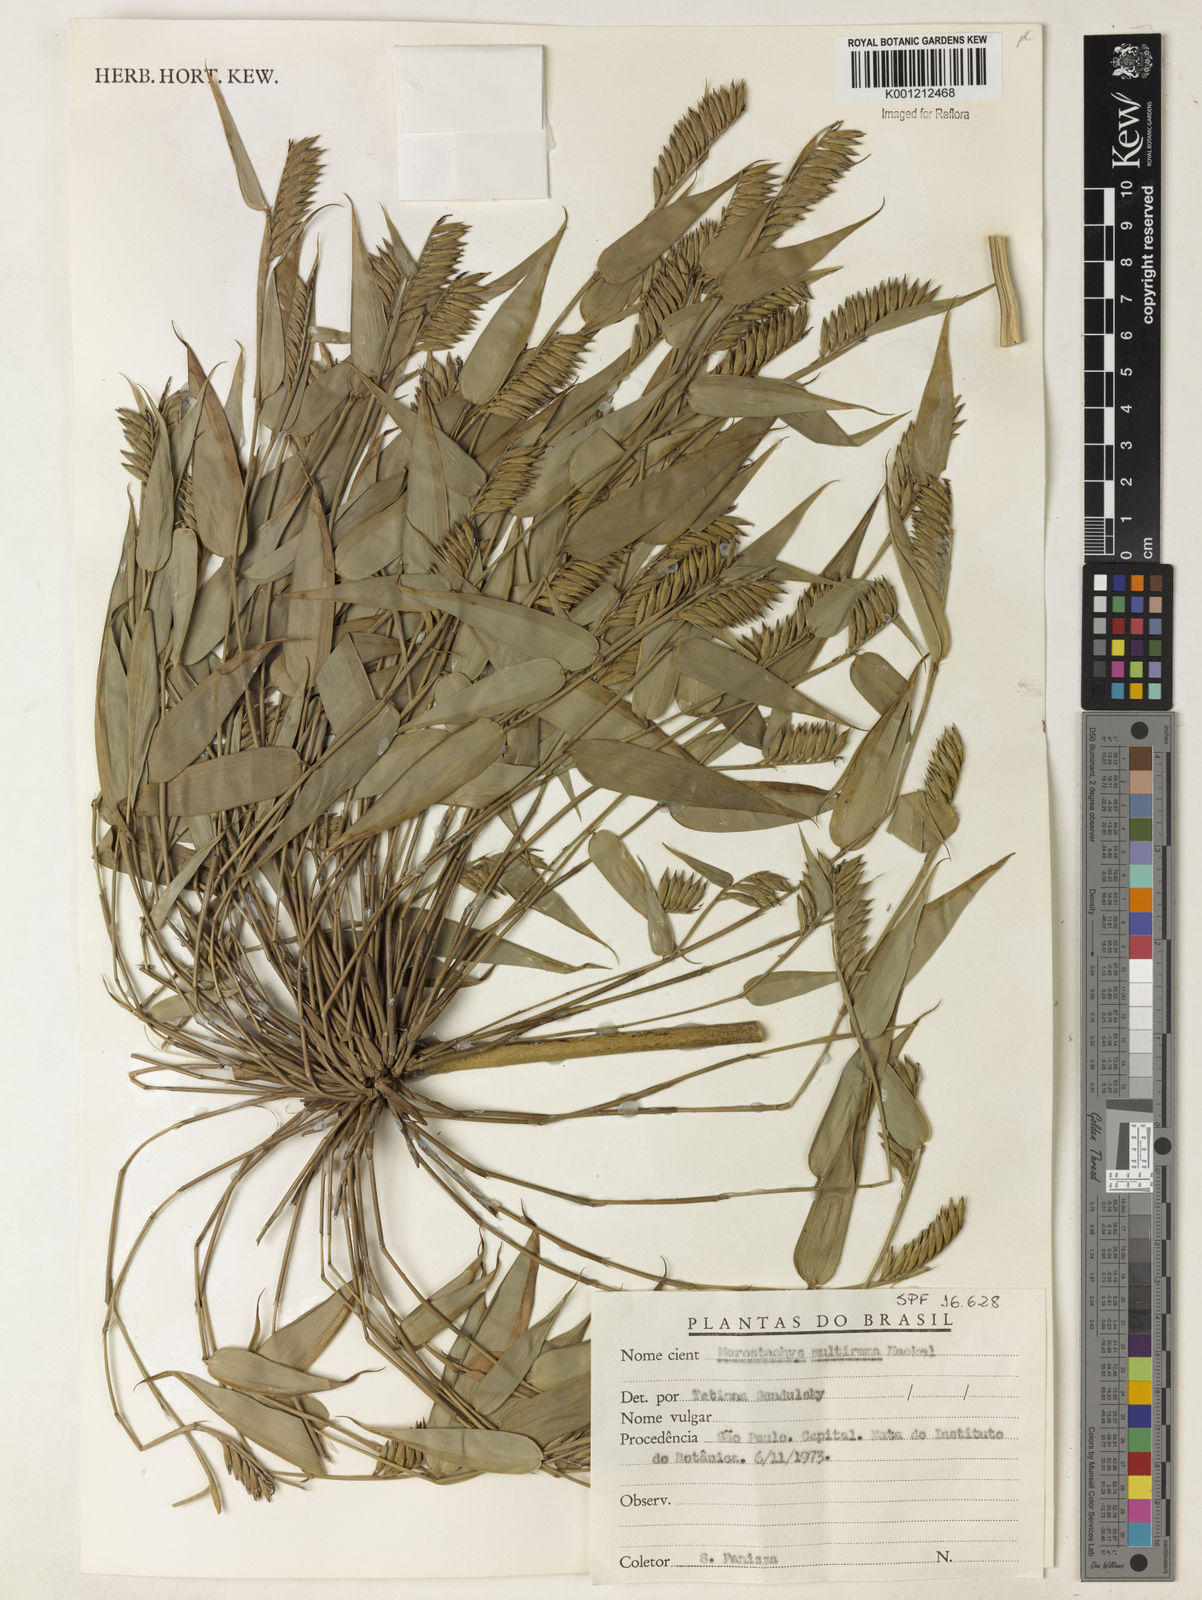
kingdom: Plantae
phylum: Tracheophyta
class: Liliopsida
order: Poales
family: Poaceae
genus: Merostachys
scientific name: Merostachys multiramea
